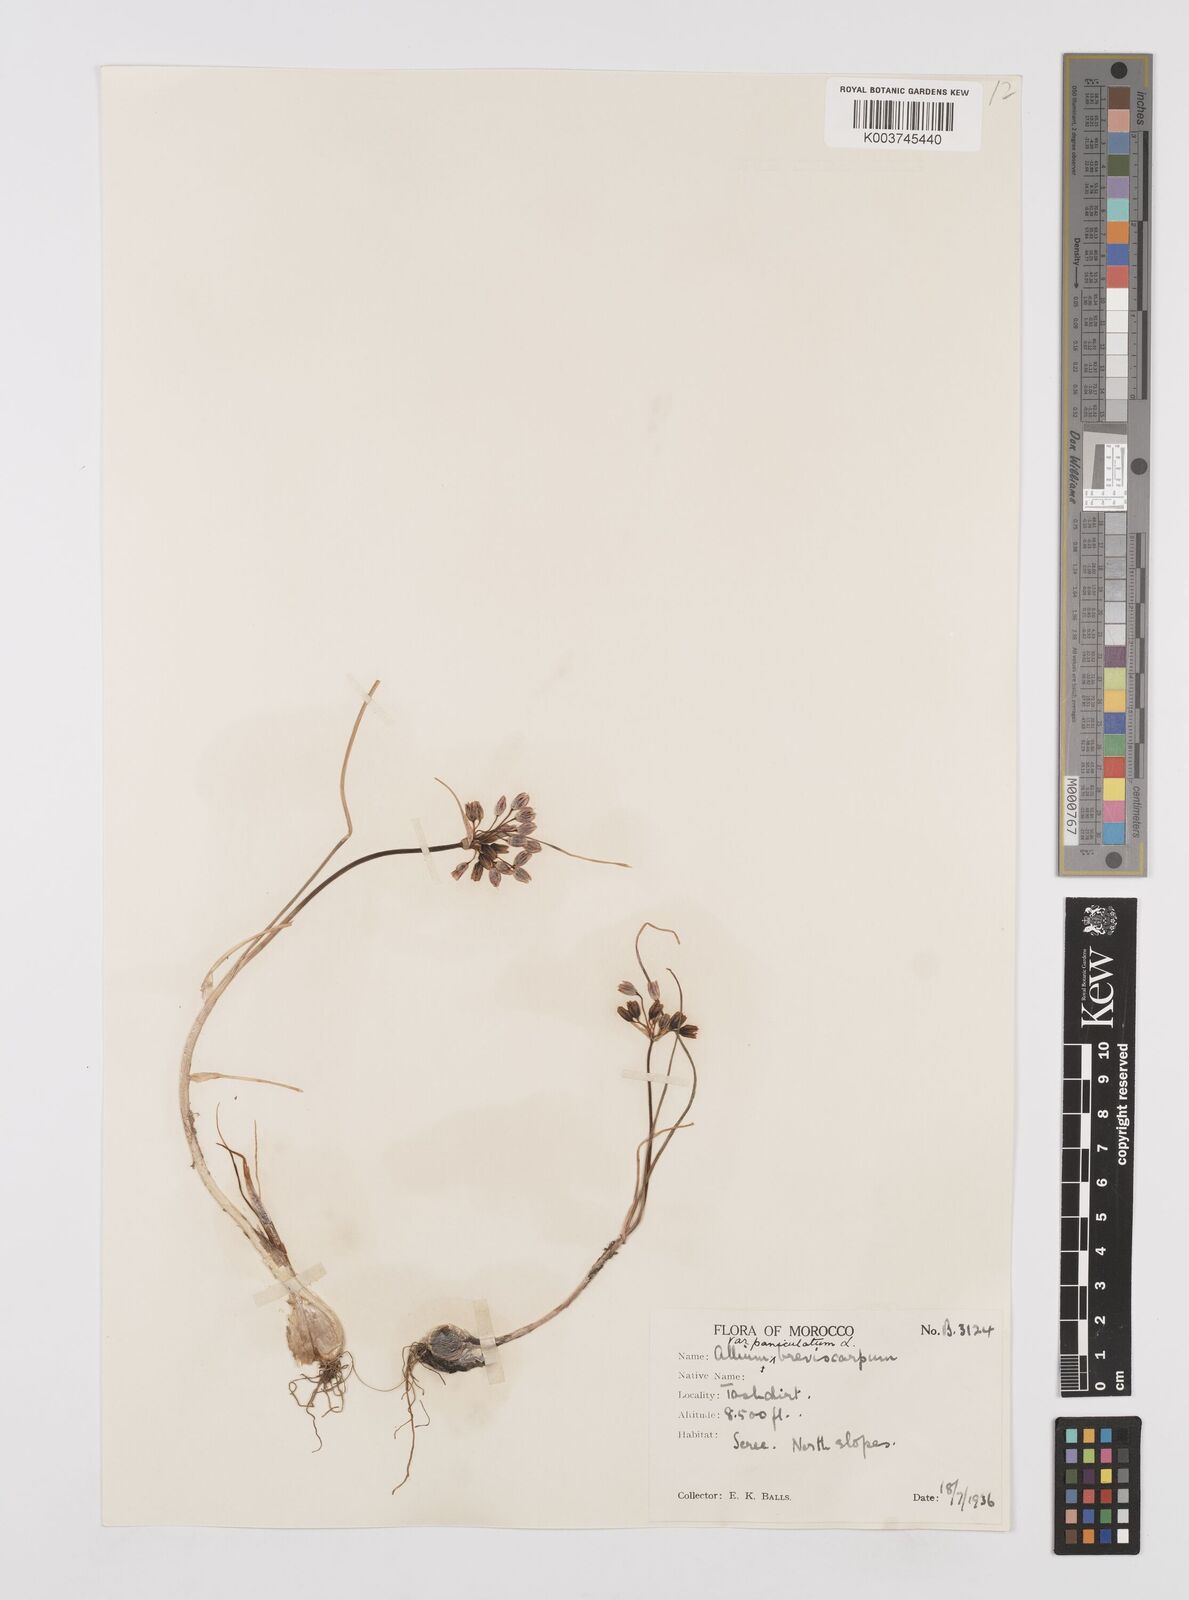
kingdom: Plantae
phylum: Tracheophyta
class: Liliopsida
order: Asparagales
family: Amaryllidaceae
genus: Allium
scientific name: Allium paniculatum
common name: Pale garlic
